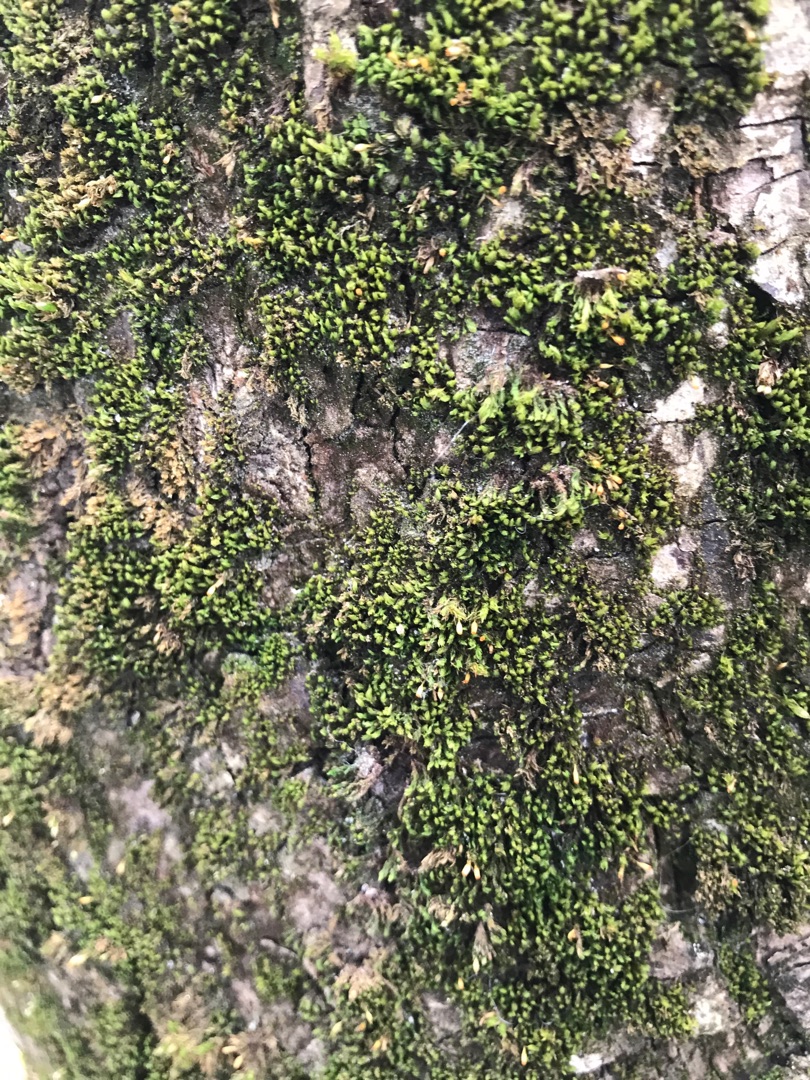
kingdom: Plantae
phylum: Bryophyta
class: Bryopsida
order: Orthotrichales
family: Orthotrichaceae
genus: Zygodon
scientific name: Zygodon conoideus
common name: Tand-køllemos
